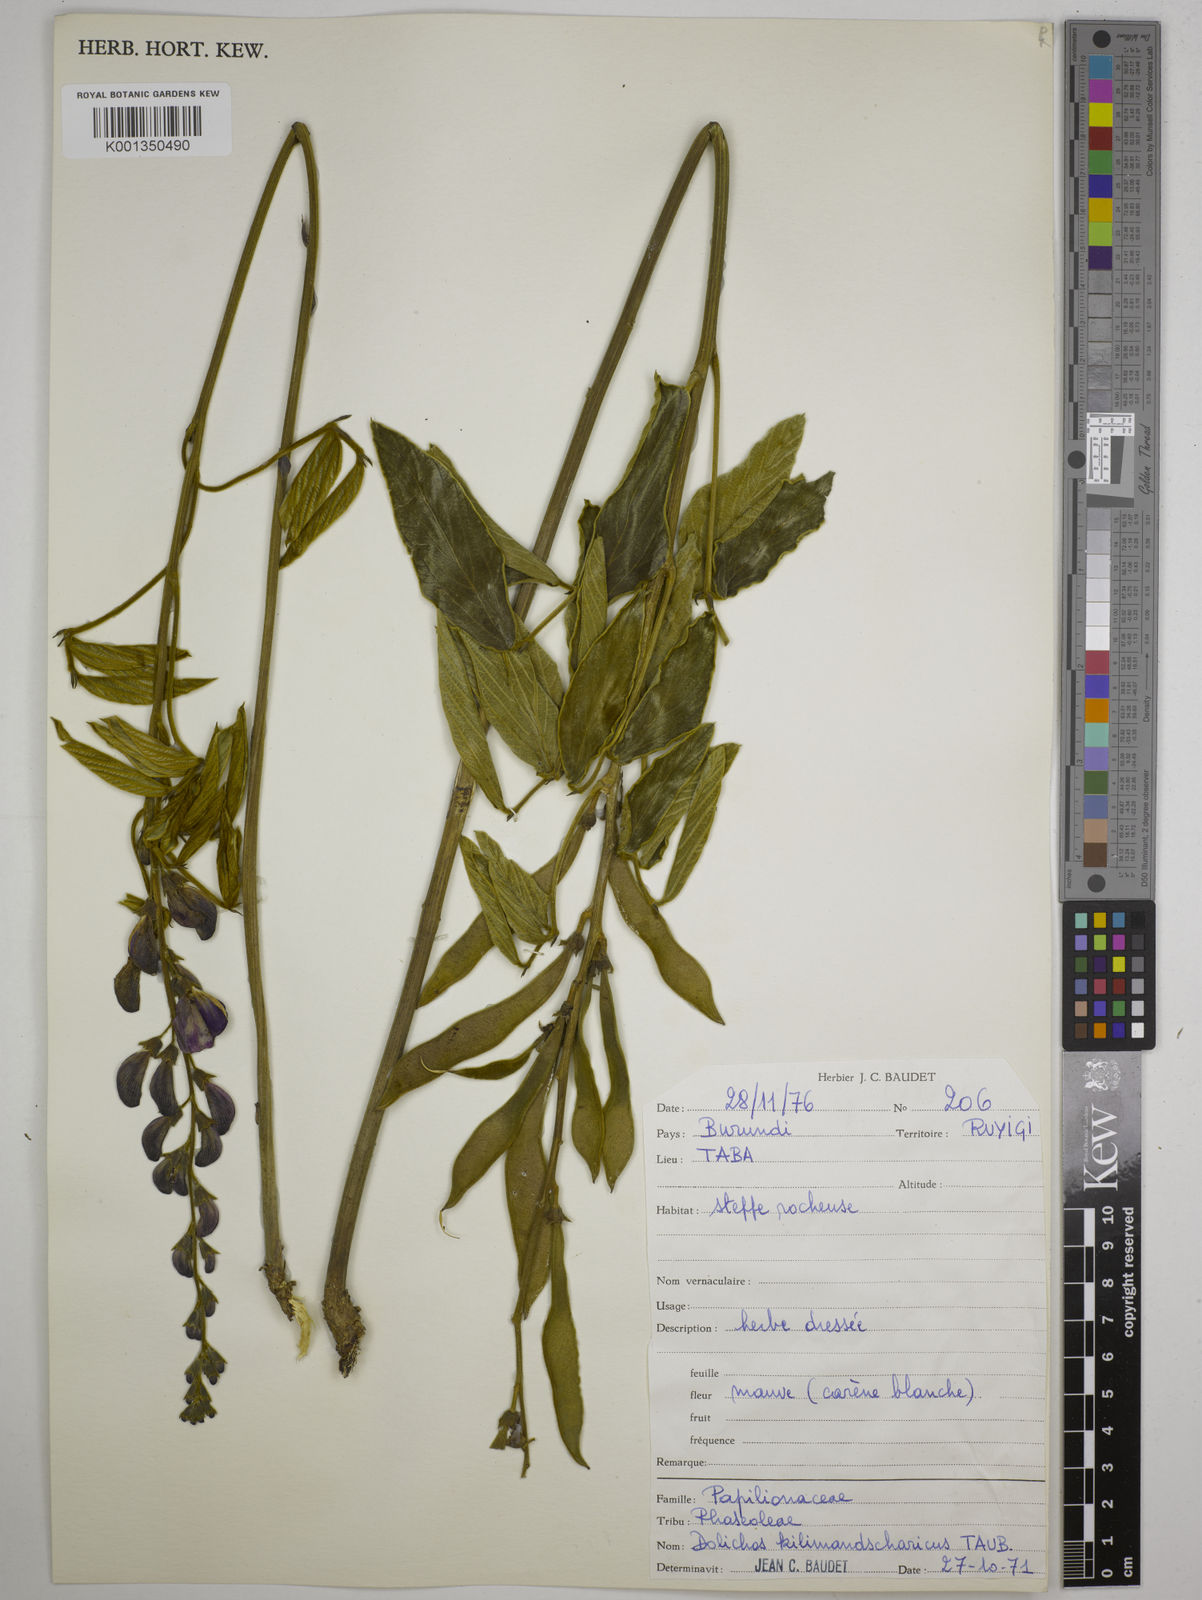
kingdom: Plantae
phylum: Tracheophyta
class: Magnoliopsida
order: Fabales
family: Fabaceae
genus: Dolichos
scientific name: Dolichos kilimandscharicus
